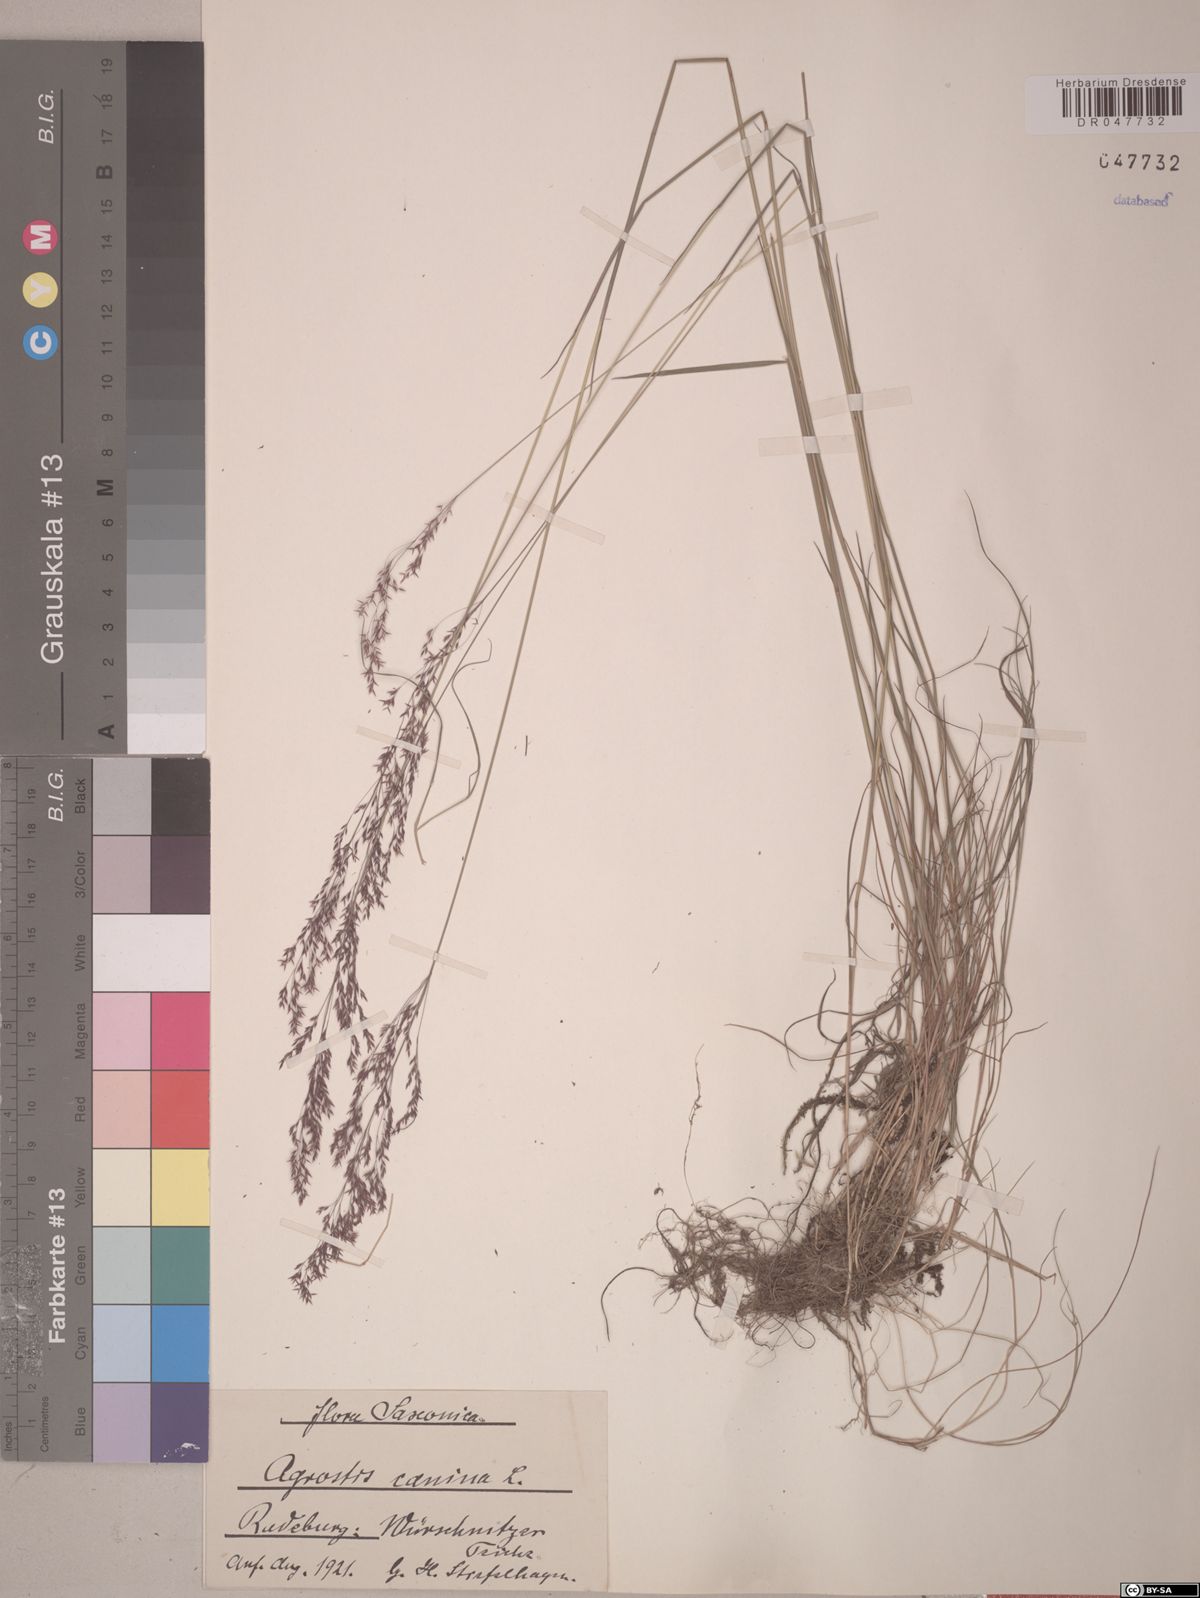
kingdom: Plantae
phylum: Tracheophyta
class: Liliopsida
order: Poales
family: Poaceae
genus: Agrostis
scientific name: Agrostis canina
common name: Velvet bent
